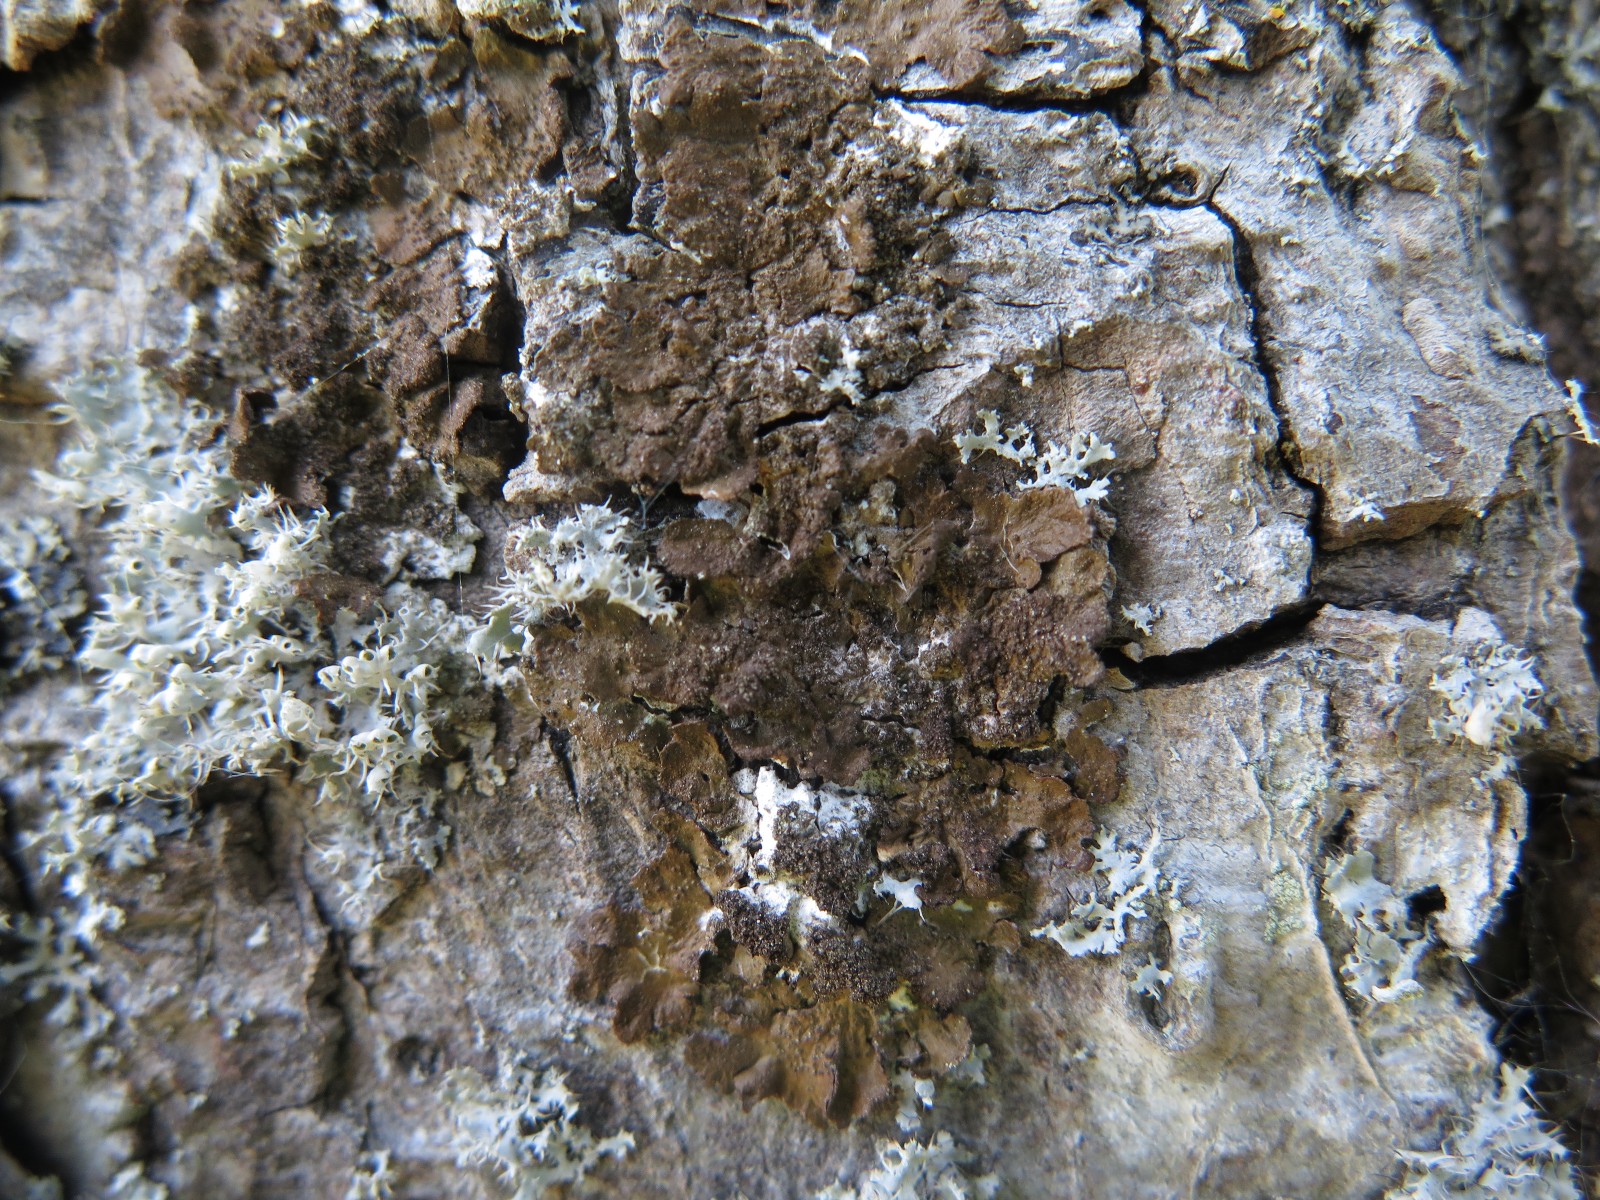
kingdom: Fungi
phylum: Ascomycota
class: Lecanoromycetes
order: Lecanorales
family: Parmeliaceae
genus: Melanelixia
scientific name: Melanelixia subaurifera
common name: guldpudret skållav
